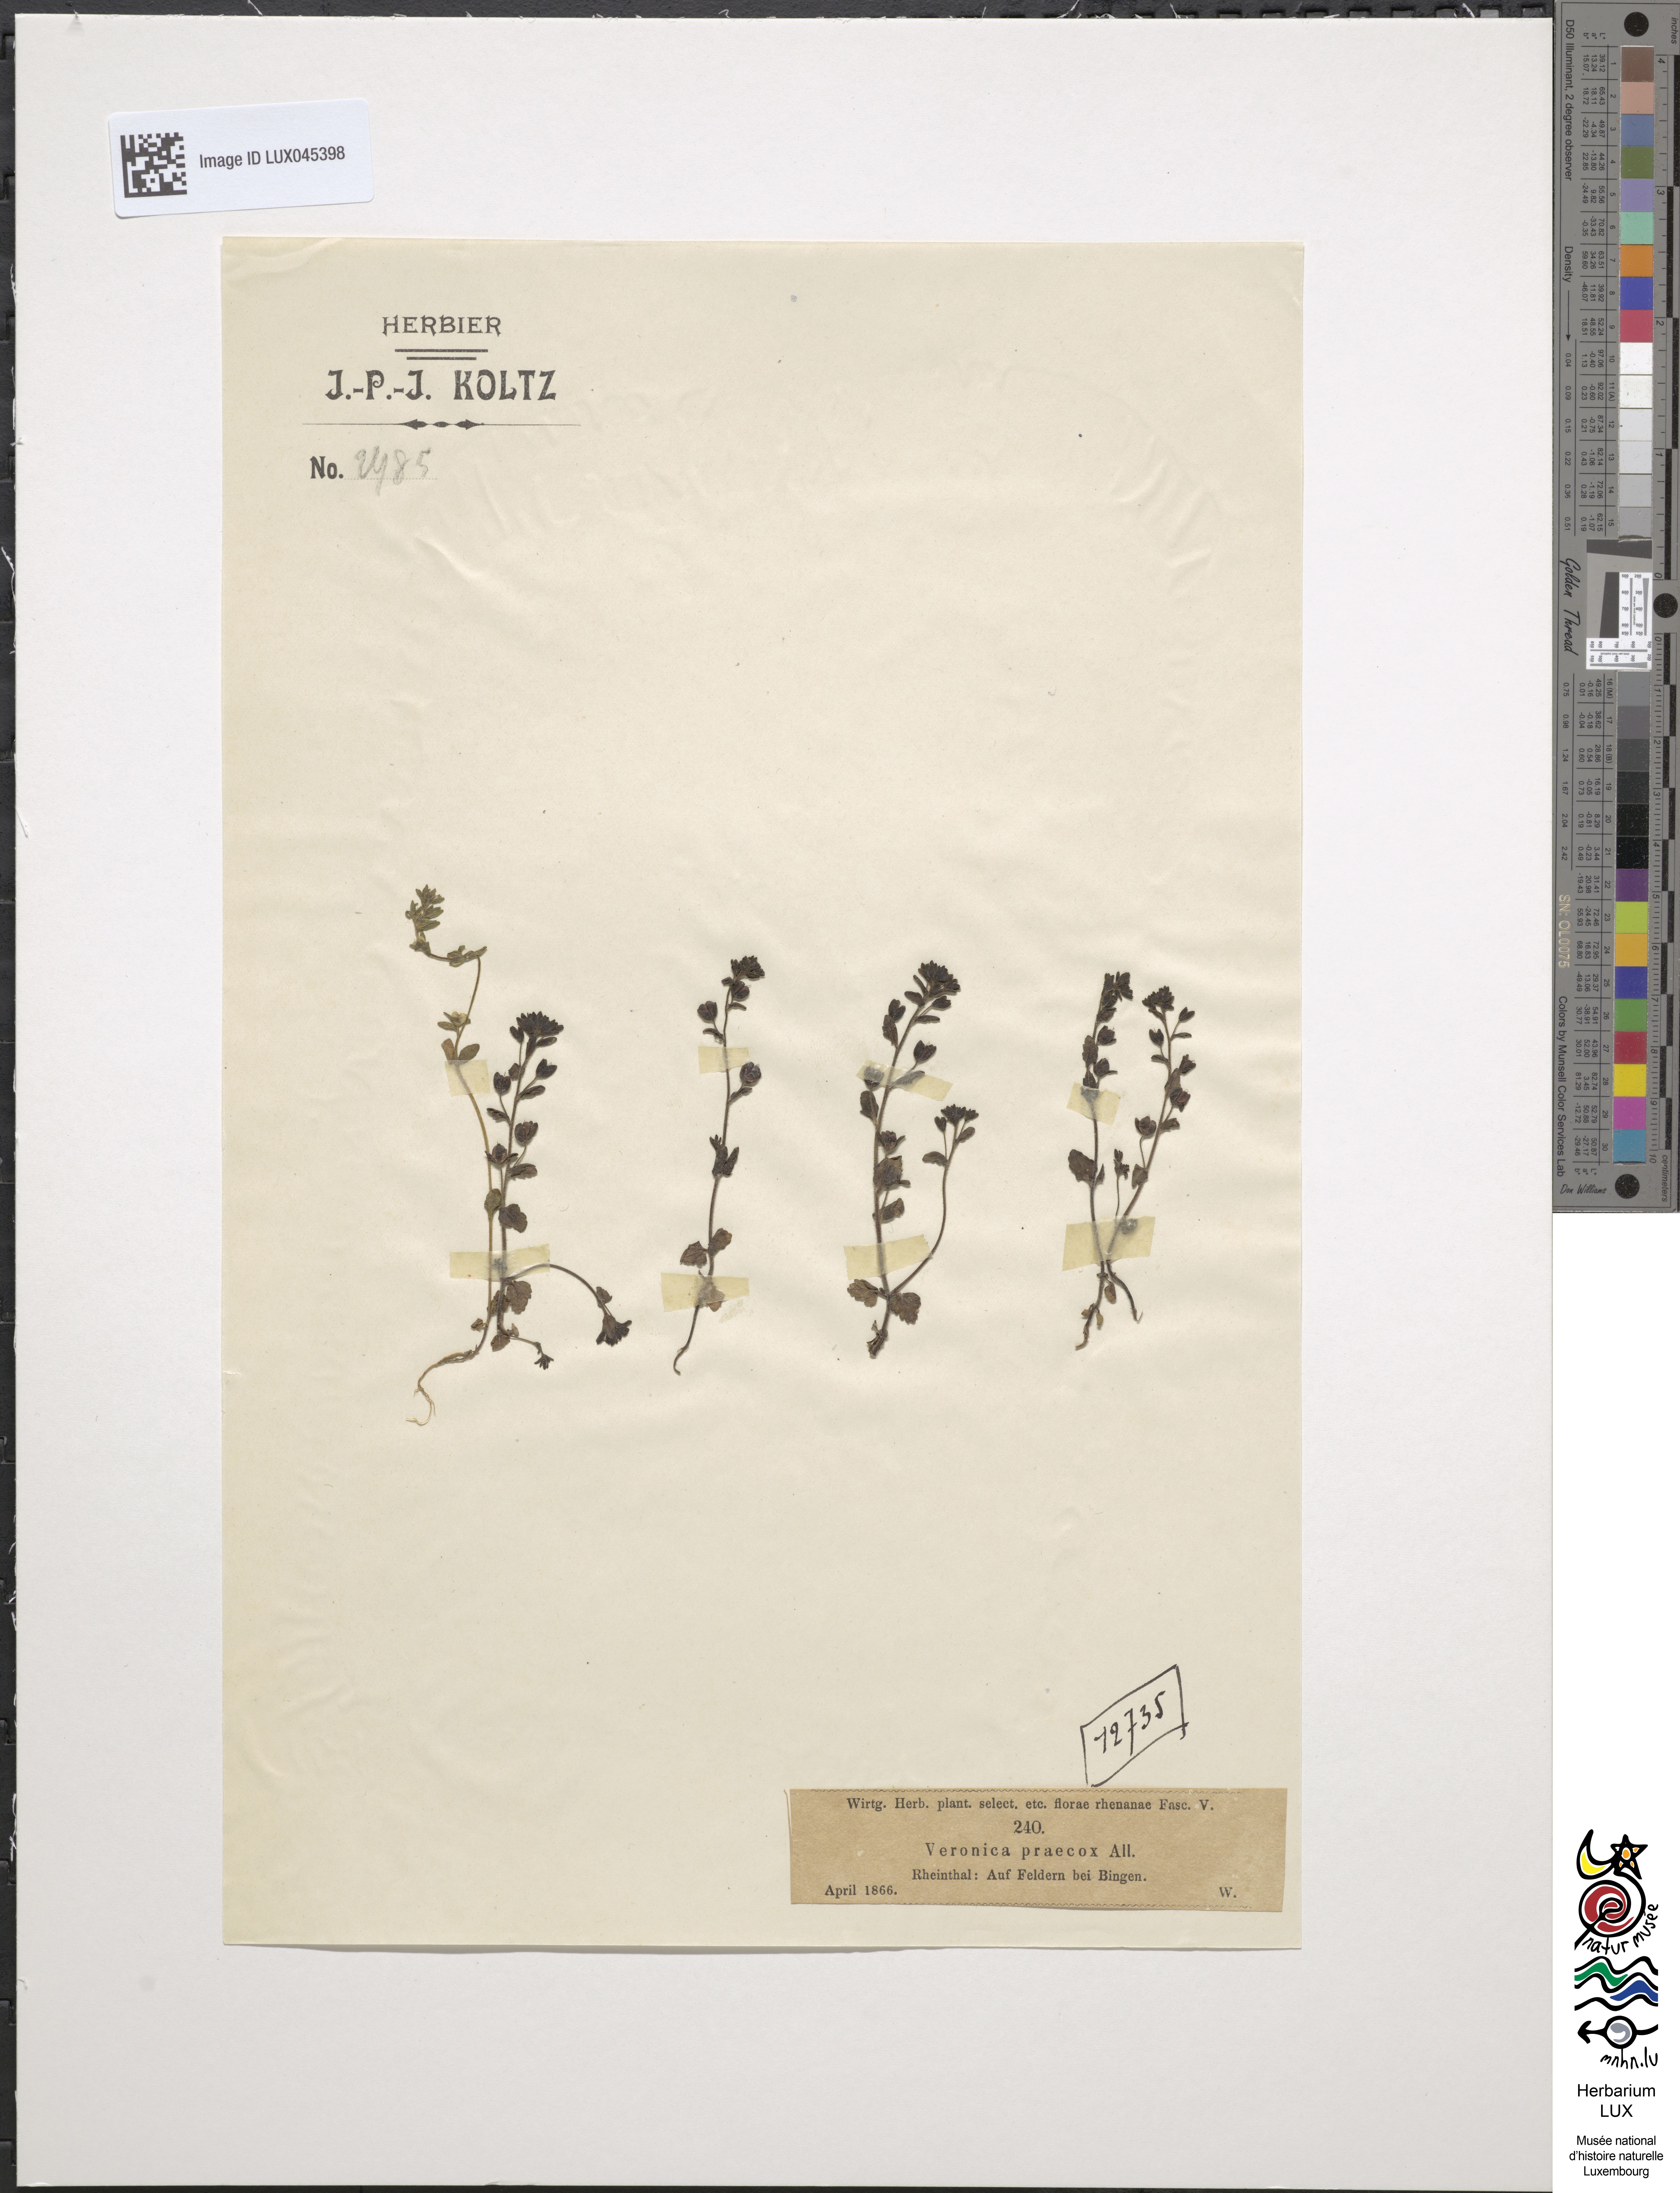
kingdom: Plantae
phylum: Tracheophyta
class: Magnoliopsida
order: Lamiales
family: Plantaginaceae
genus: Veronica
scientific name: Veronica praecox
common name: Breckland speedwell
